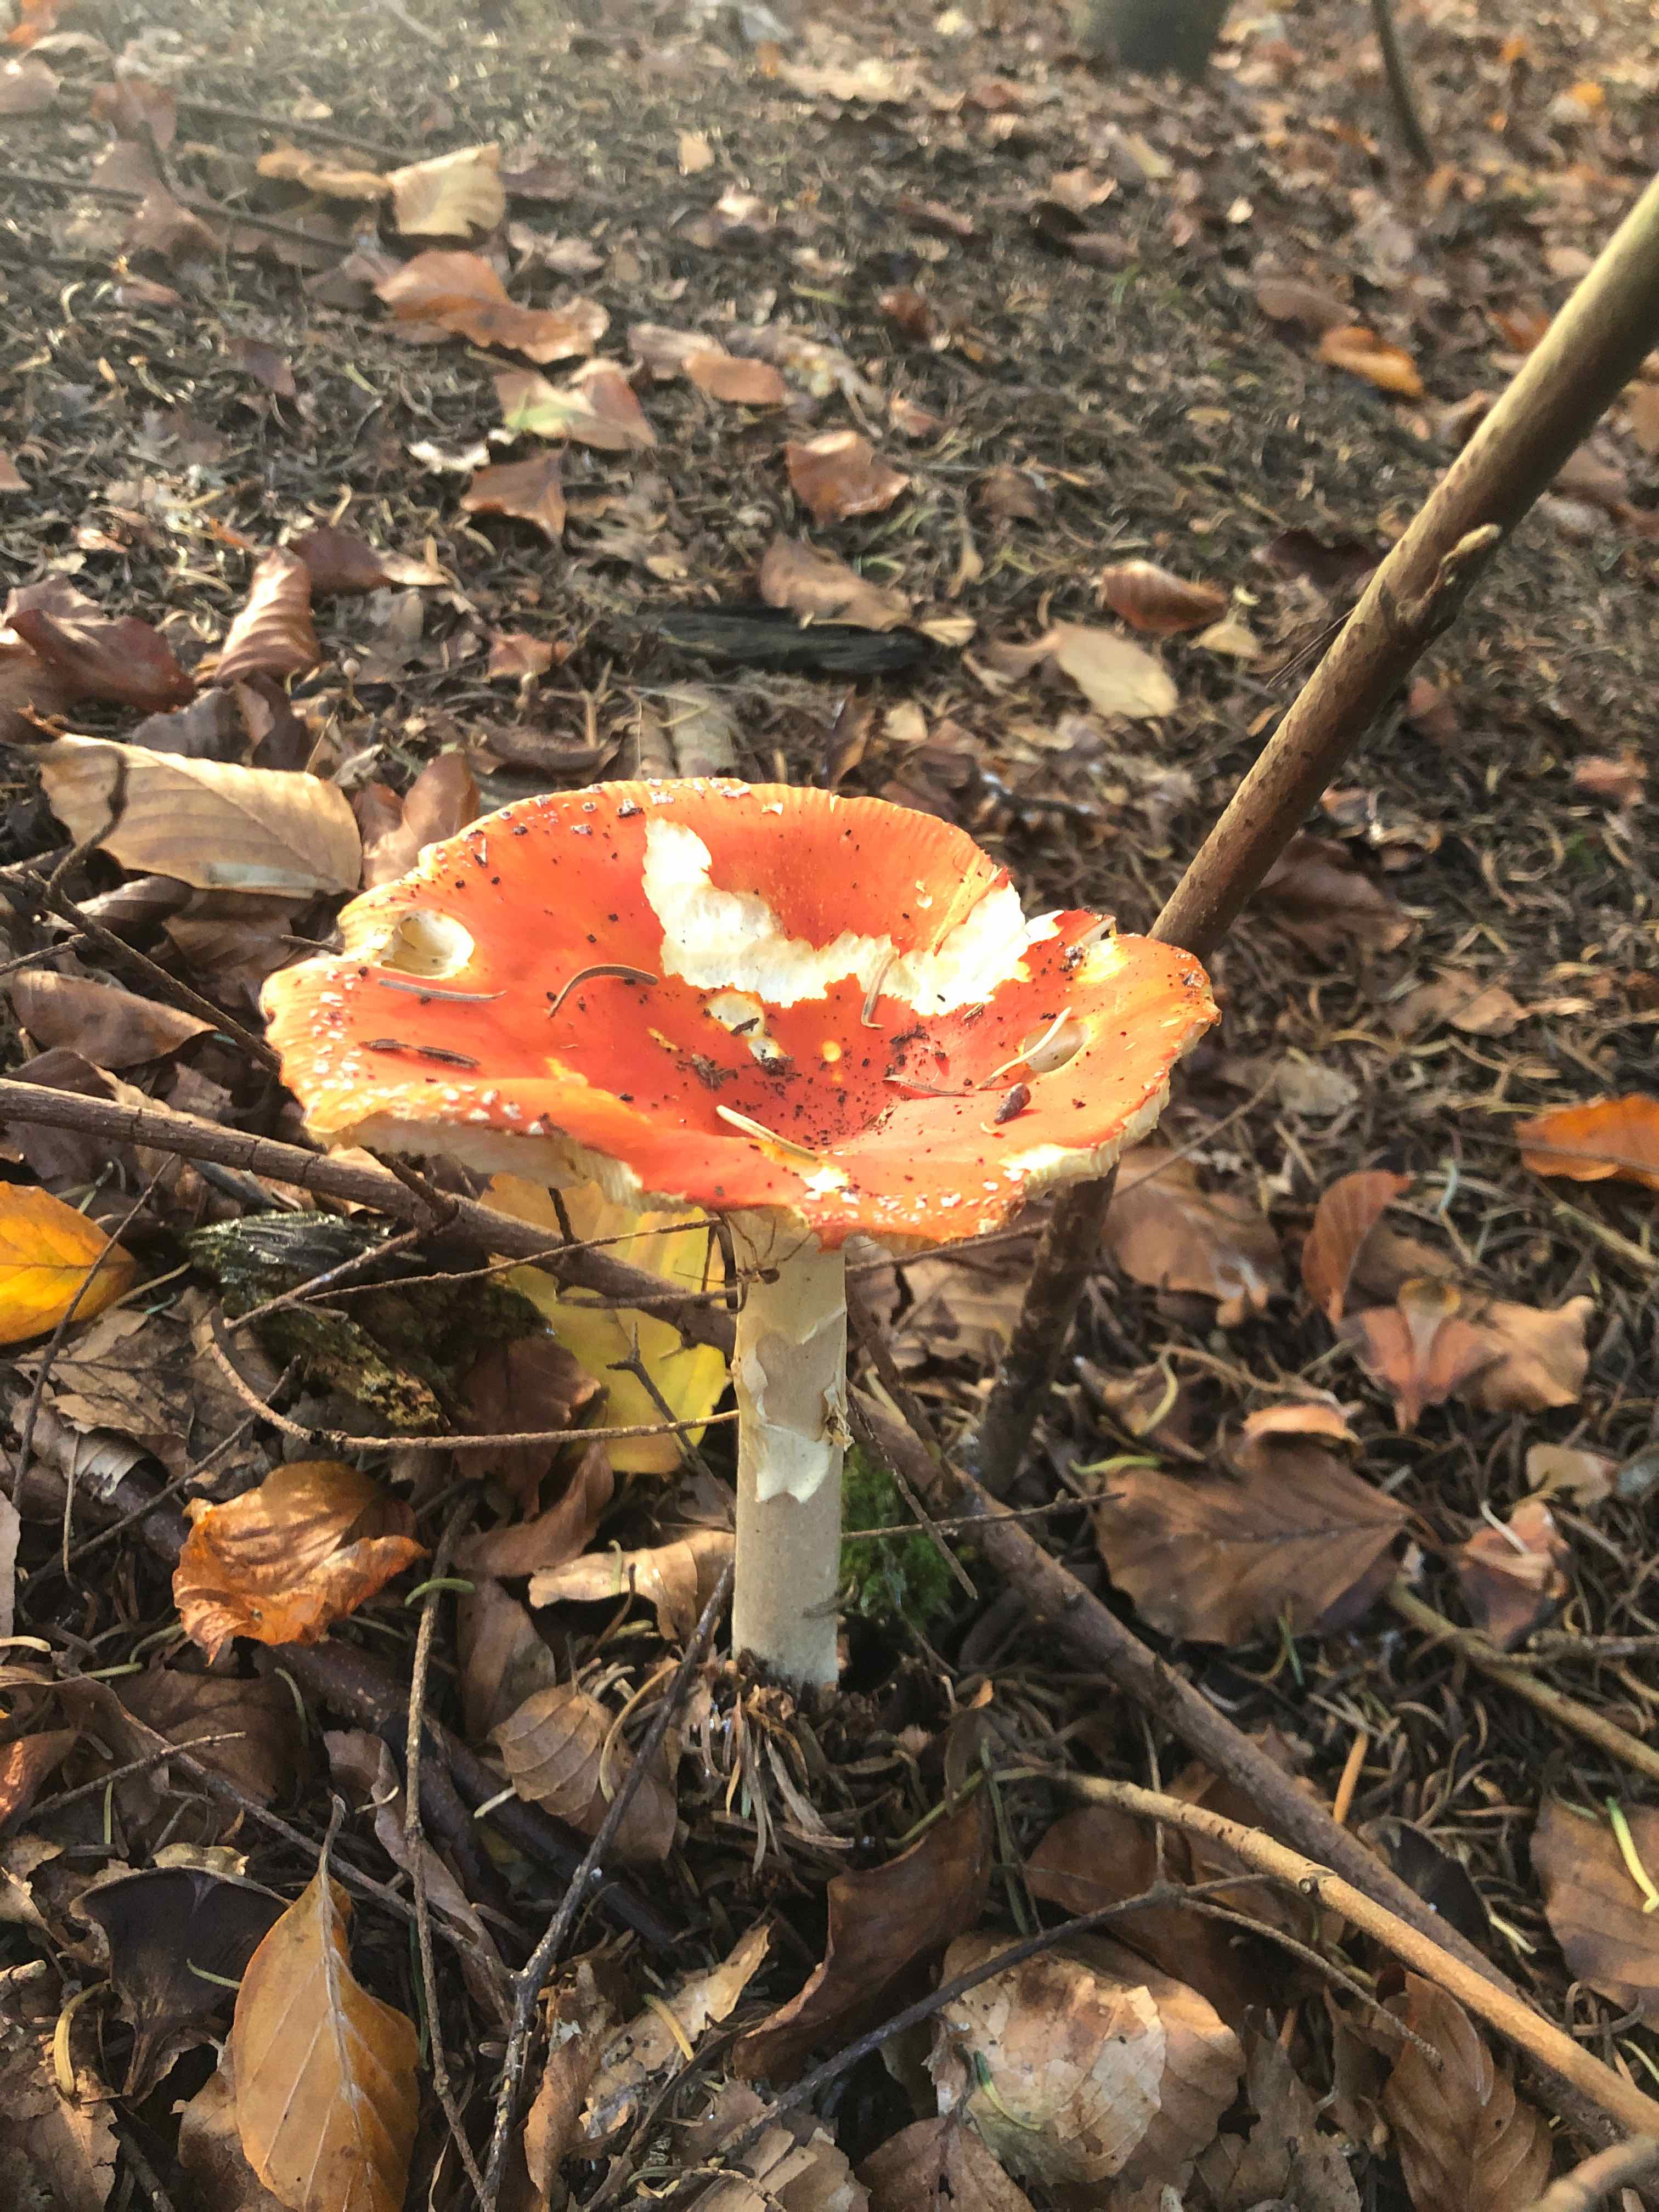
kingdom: Fungi
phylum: Basidiomycota
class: Agaricomycetes
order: Agaricales
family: Amanitaceae
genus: Amanita
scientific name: Amanita muscaria
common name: rød fluesvamp
